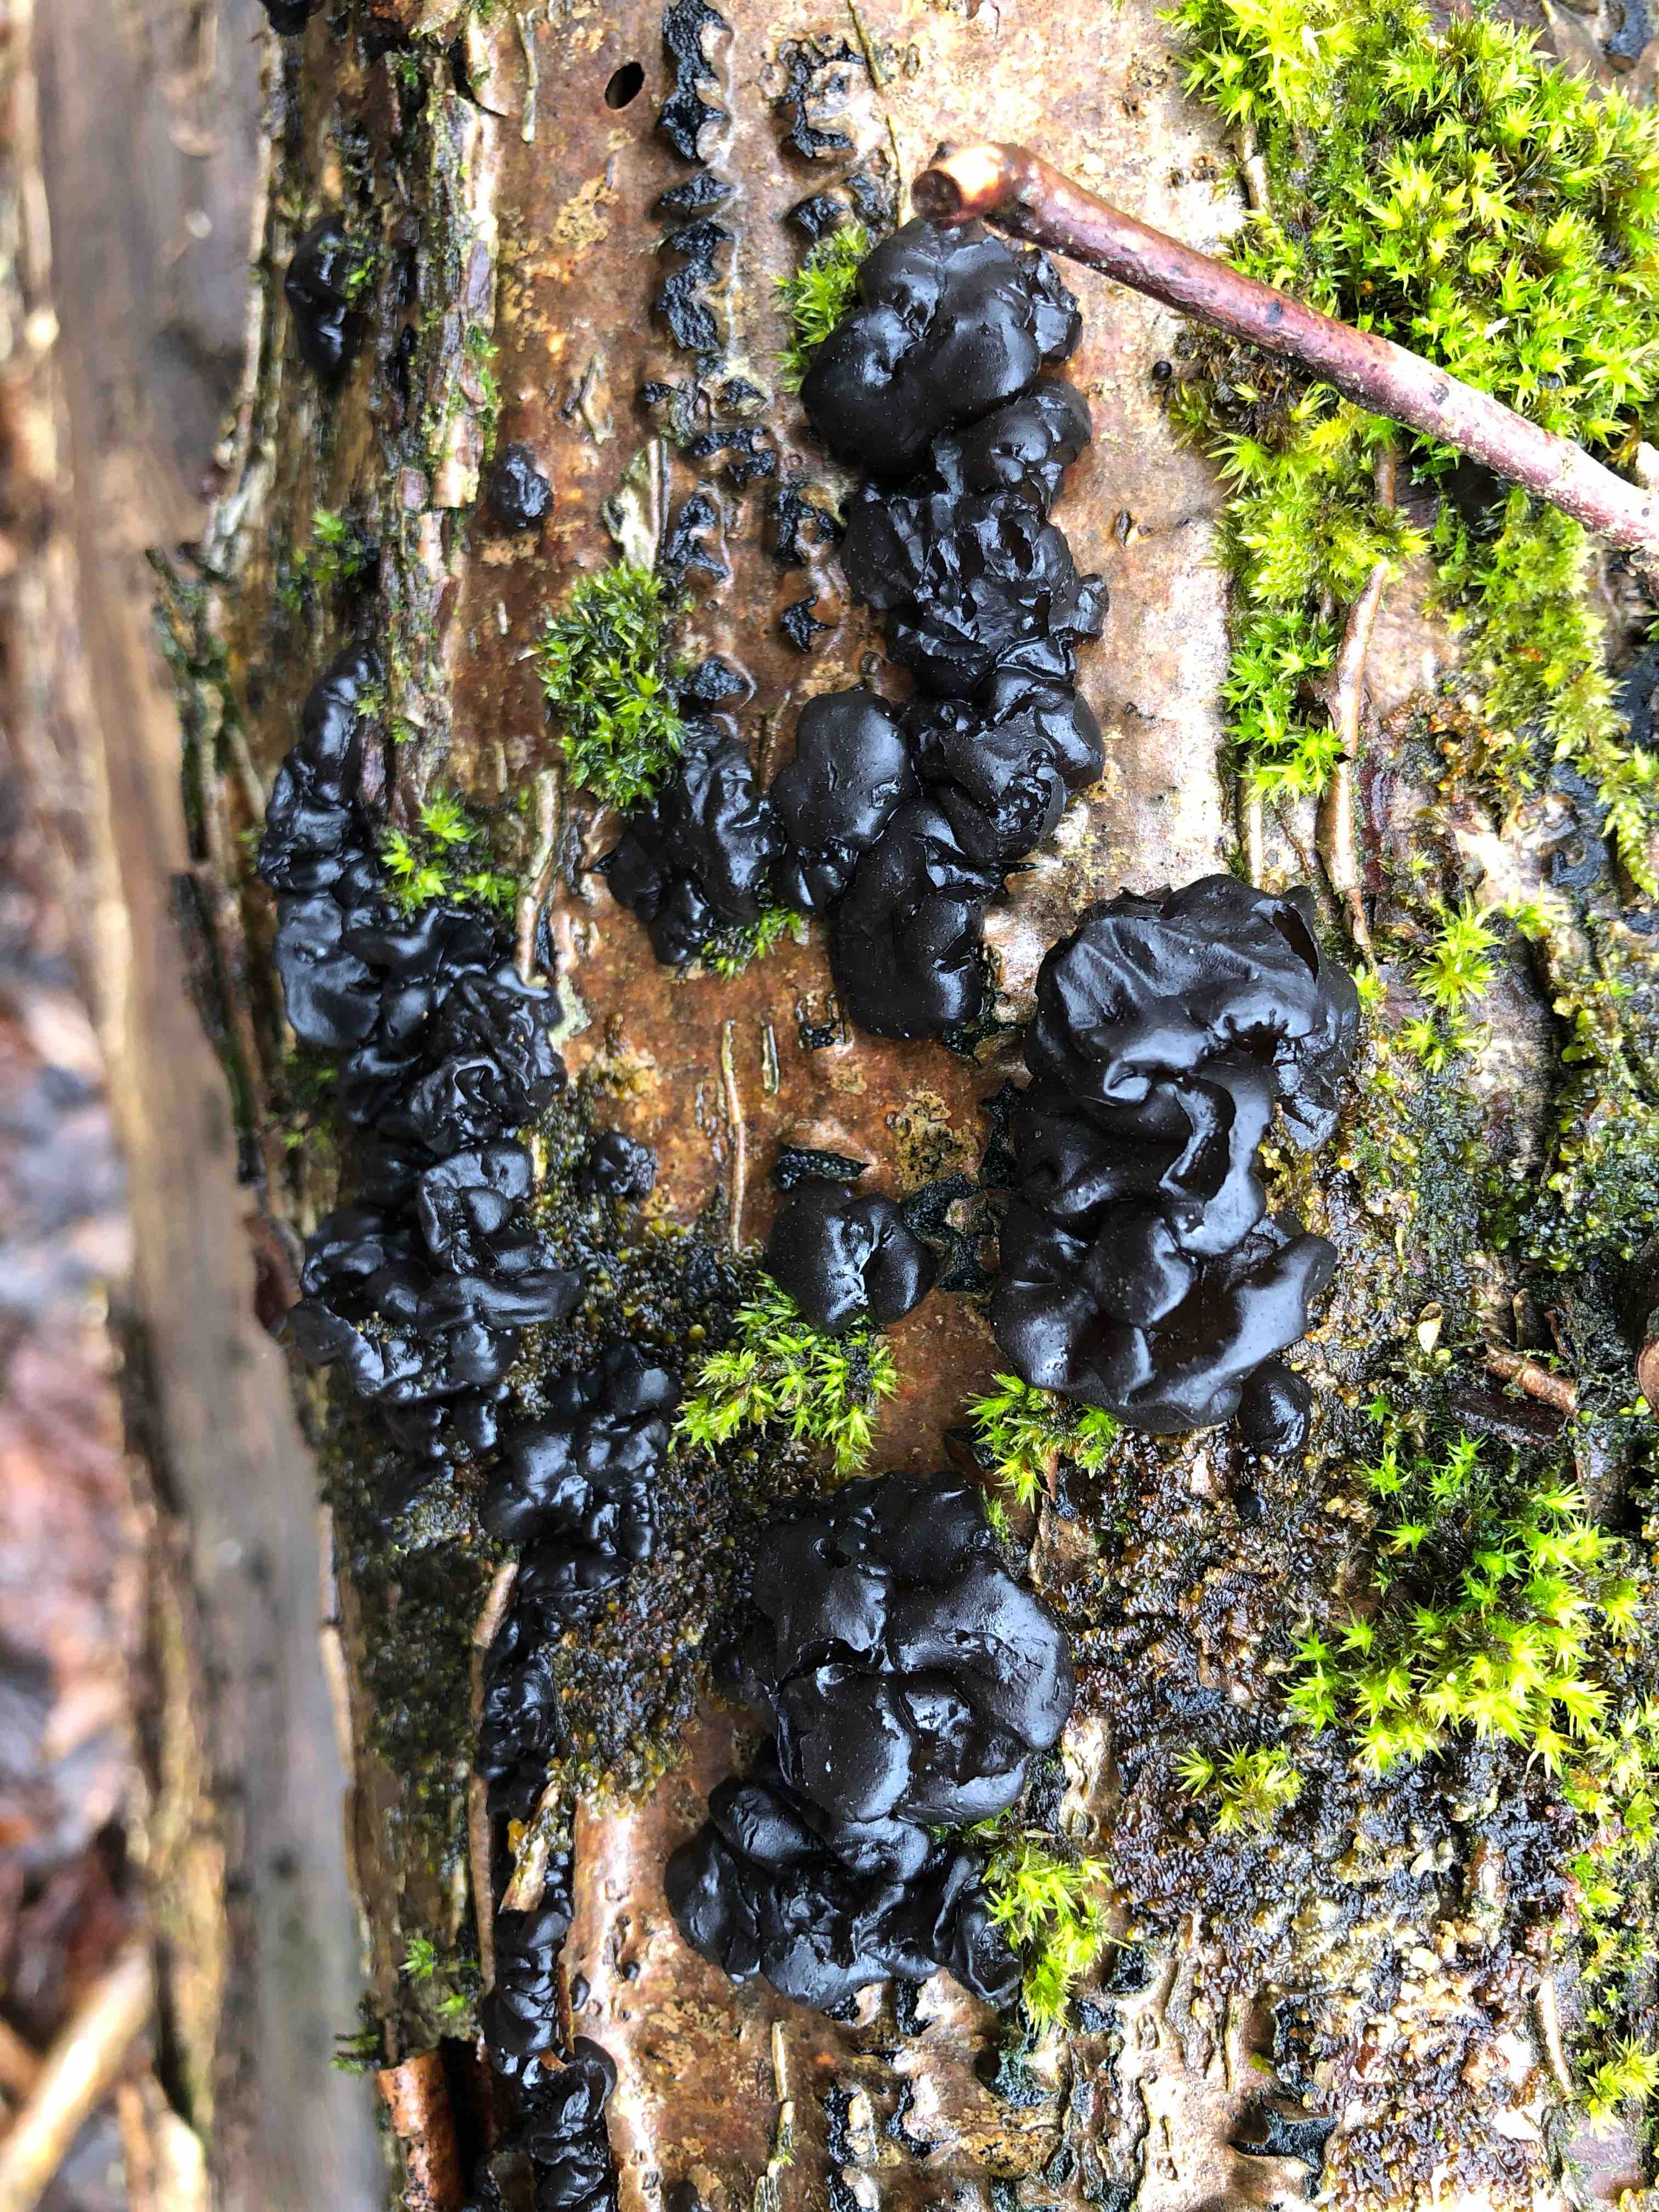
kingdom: Fungi
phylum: Basidiomycota
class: Agaricomycetes
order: Auriculariales
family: Auriculariaceae
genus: Exidia
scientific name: Exidia nigricans
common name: almindelig bævretop
